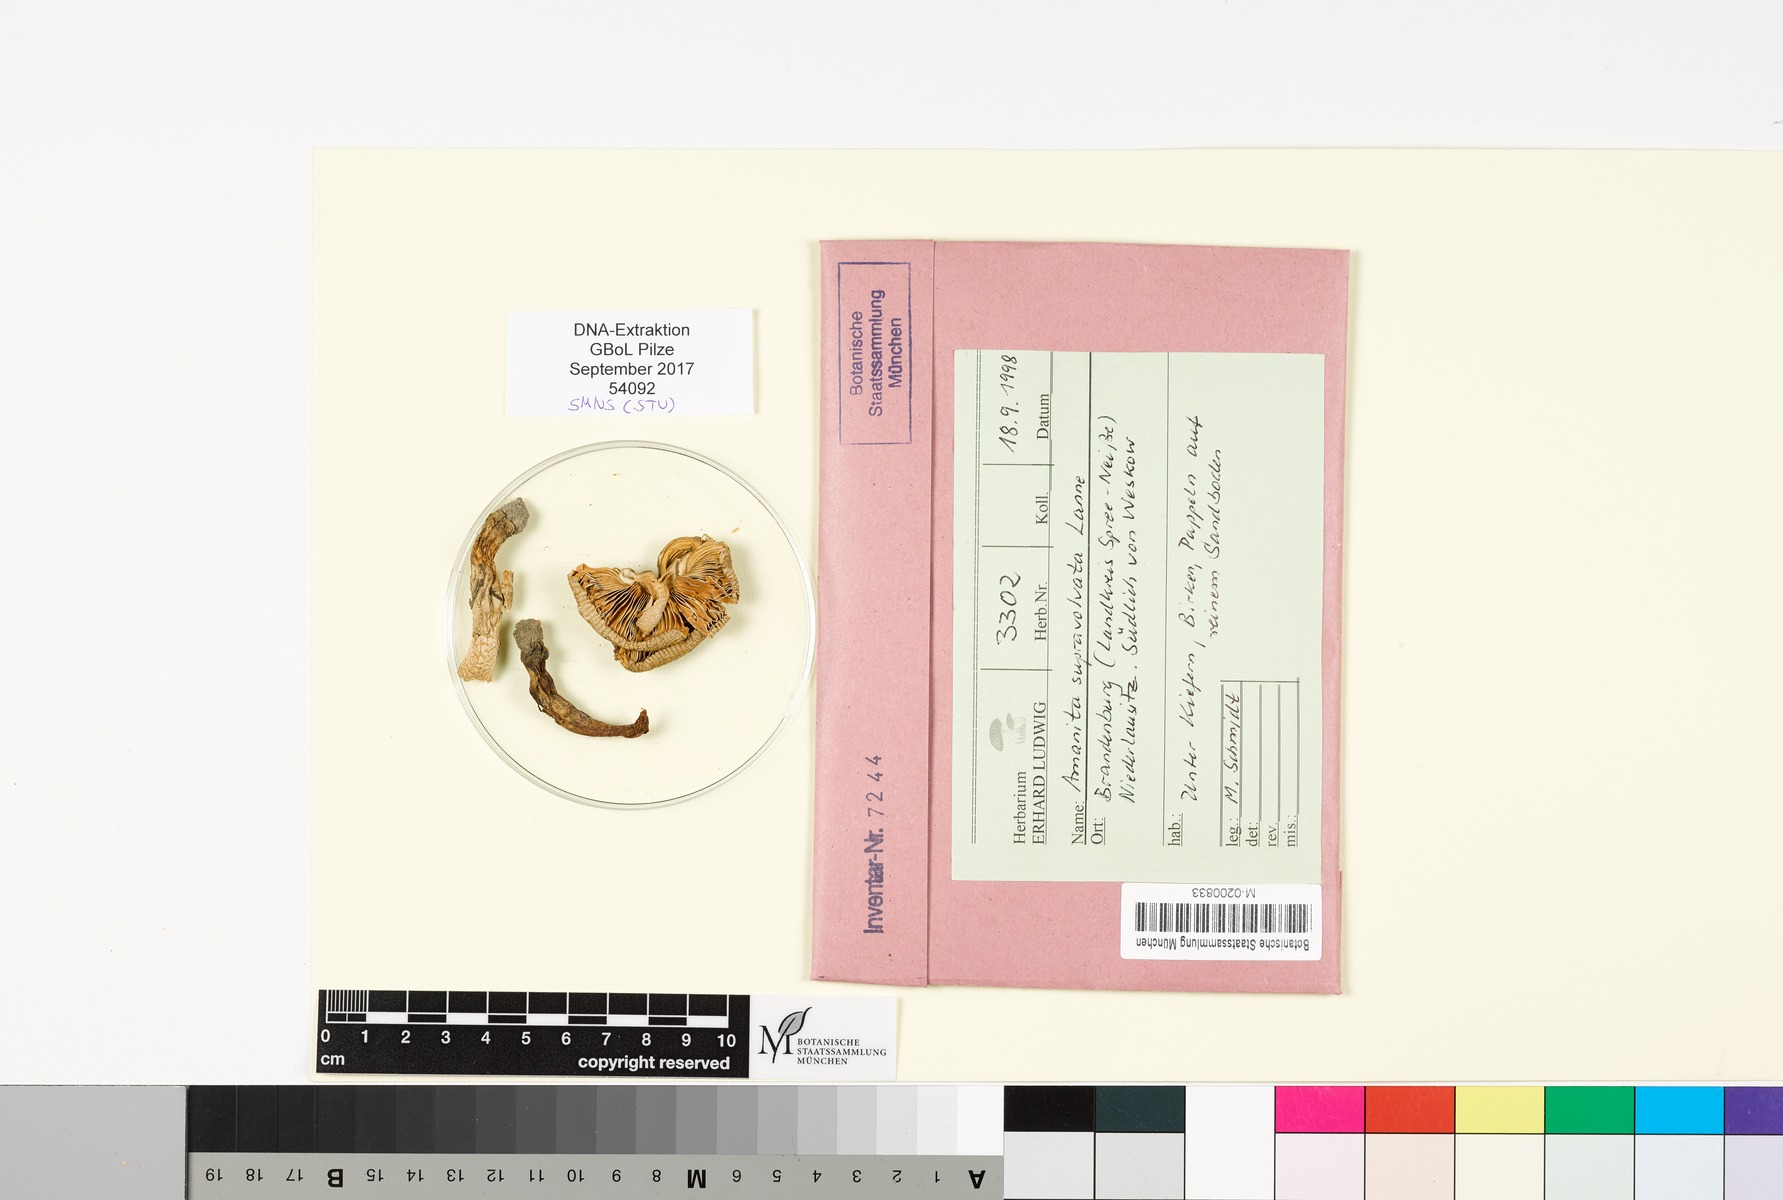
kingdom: Fungi
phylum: Basidiomycota
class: Agaricomycetes
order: Agaricales
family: Amanitaceae
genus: Amanita
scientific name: Amanita supravolvata
